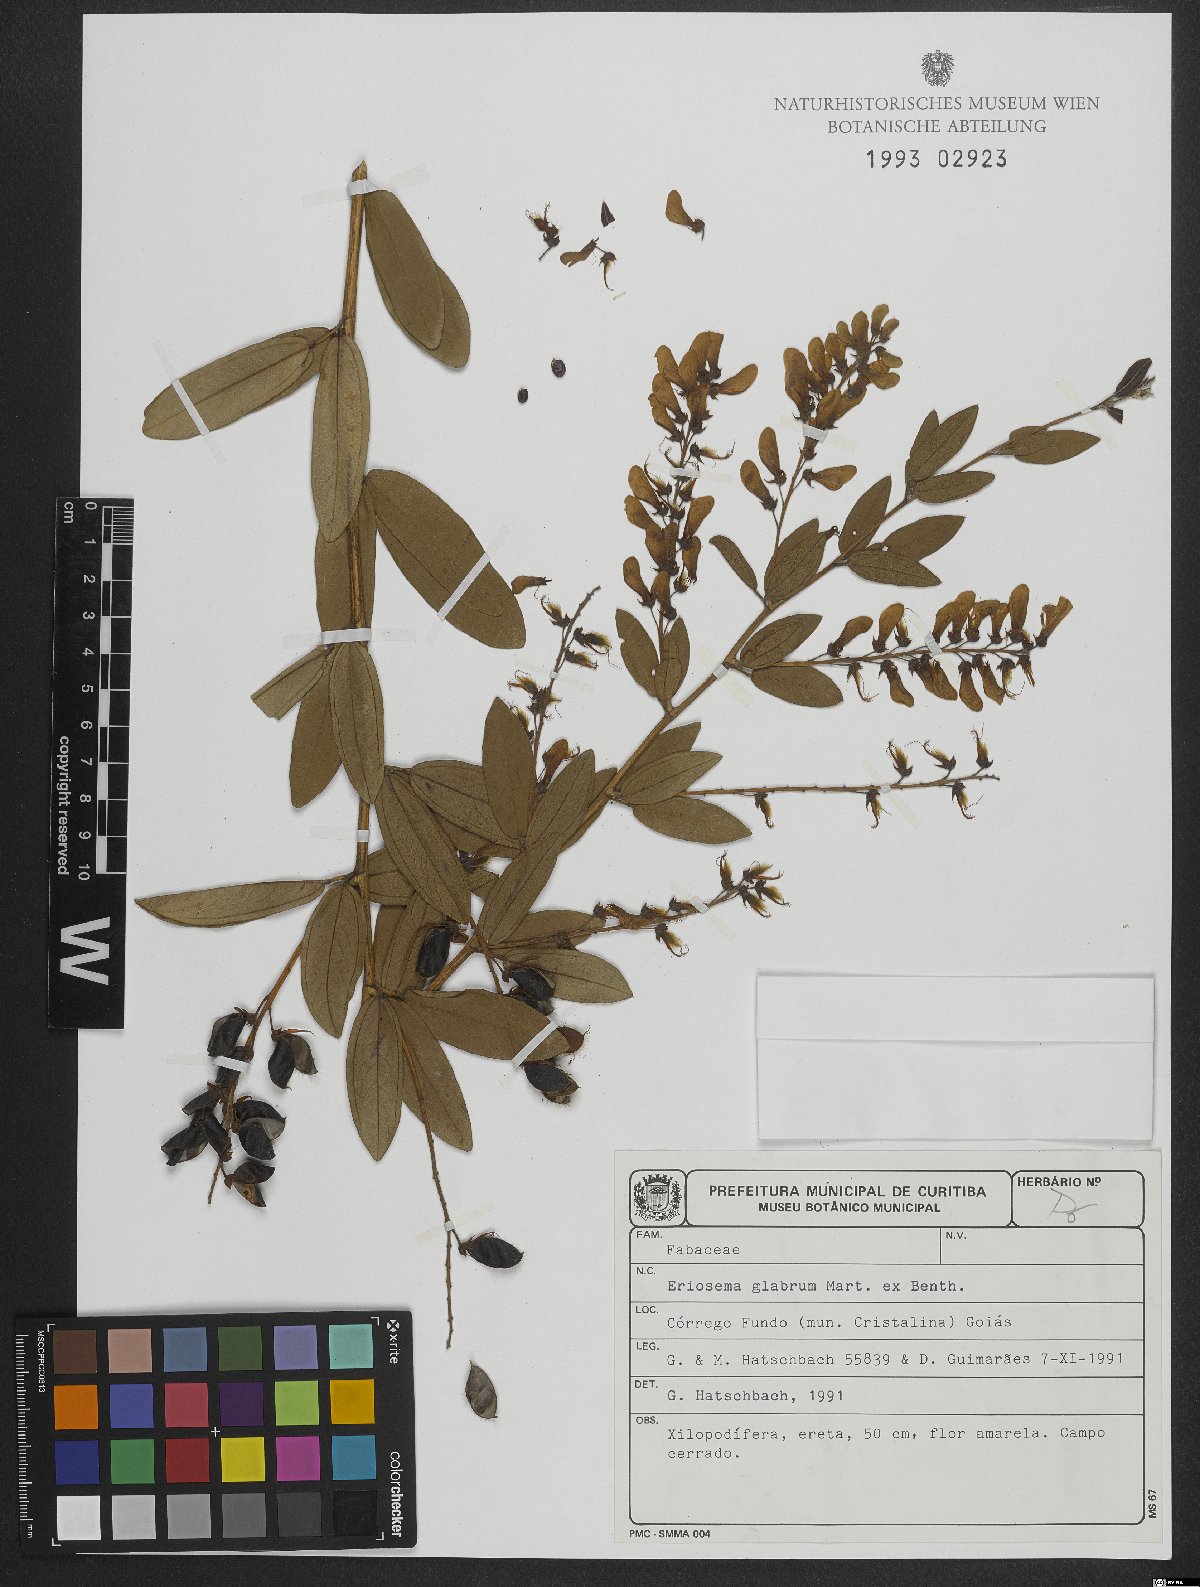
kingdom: Plantae
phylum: Tracheophyta
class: Magnoliopsida
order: Fabales
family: Fabaceae
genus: Eriosema
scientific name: Eriosema glabrum
